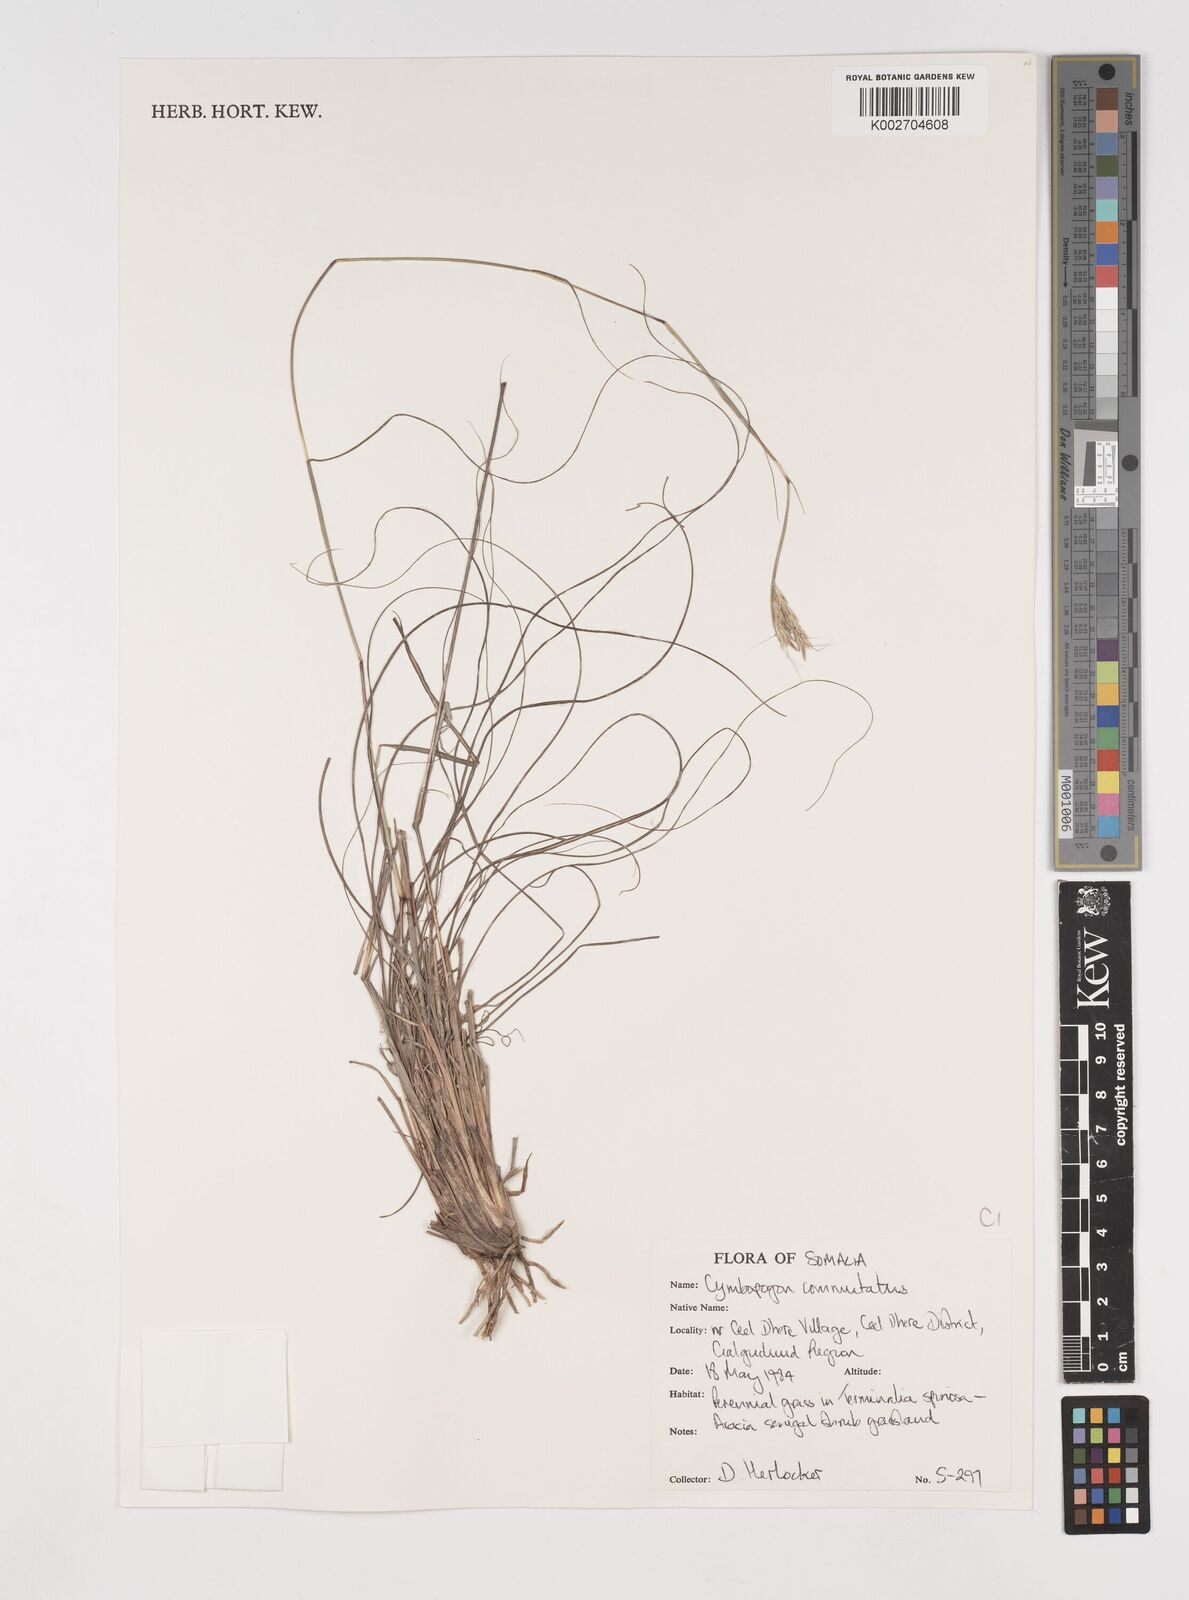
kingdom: Plantae
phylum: Tracheophyta
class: Liliopsida
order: Poales
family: Poaceae
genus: Cymbopogon
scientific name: Cymbopogon commutatus
